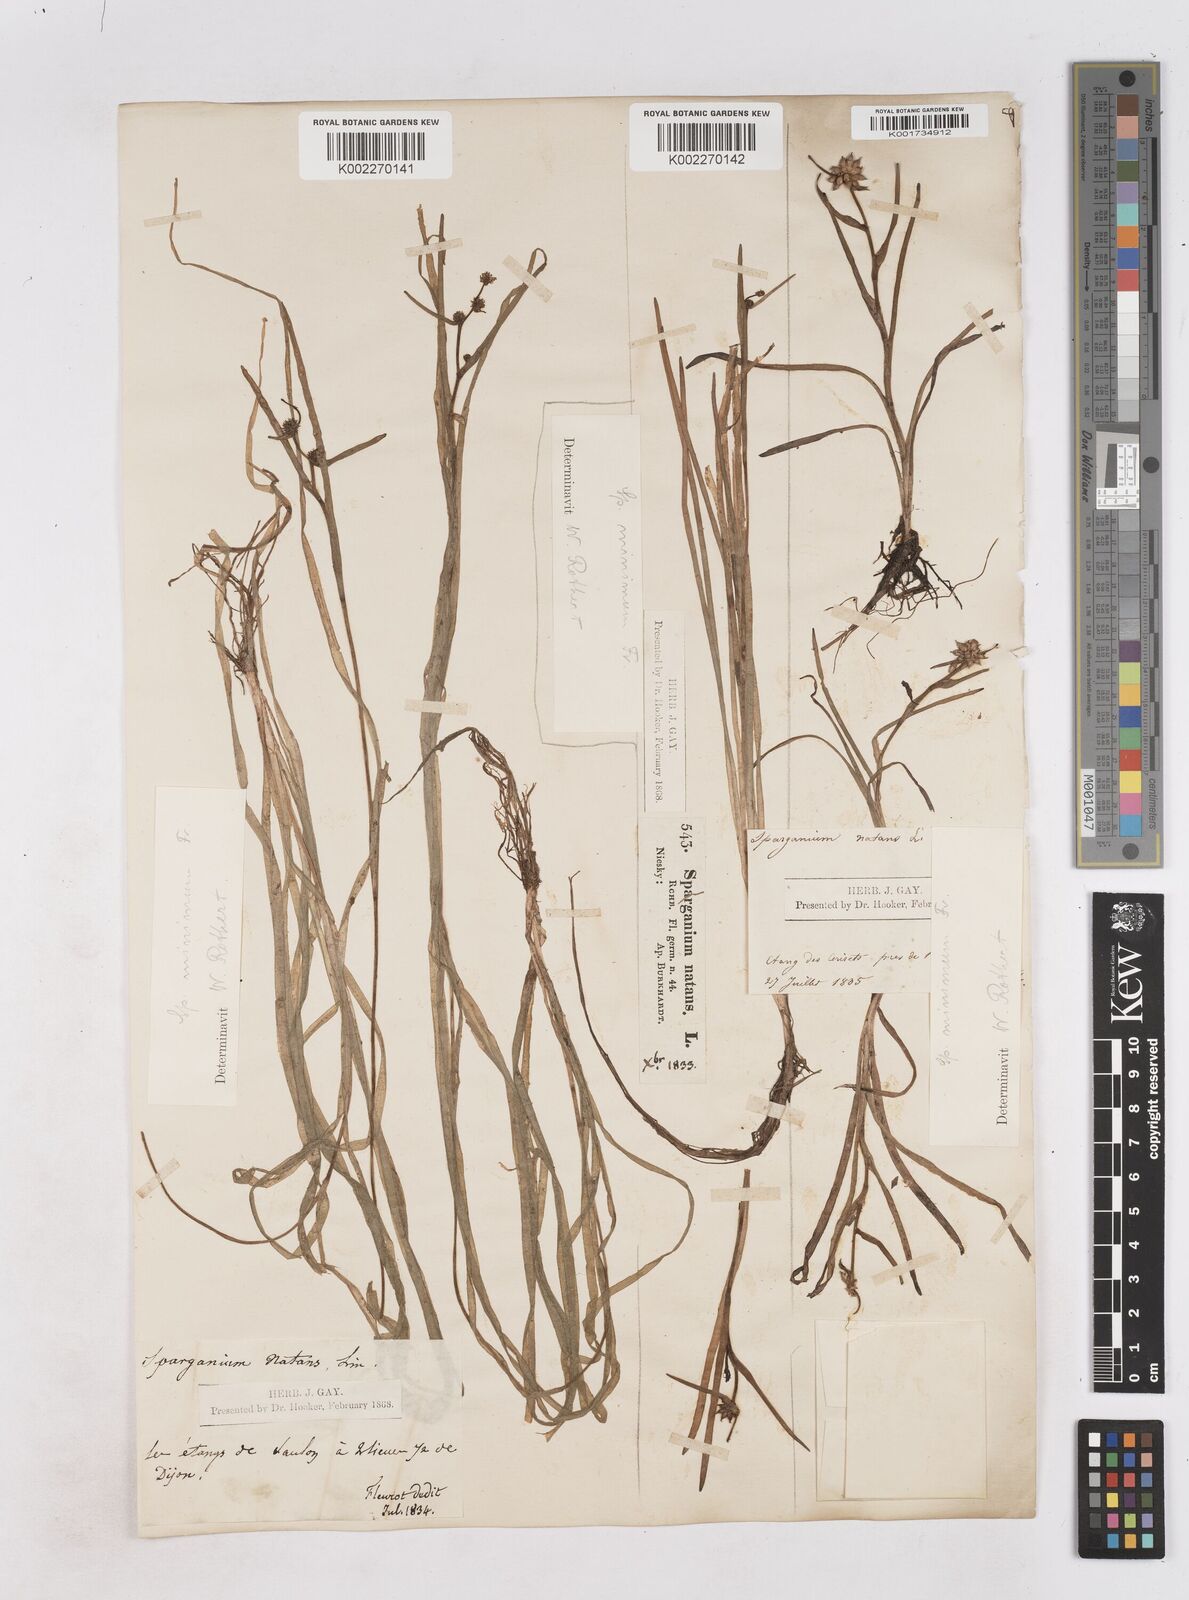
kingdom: Plantae
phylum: Tracheophyta
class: Liliopsida
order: Poales
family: Typhaceae
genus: Sparganium
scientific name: Sparganium natans
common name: Least bur-reed
